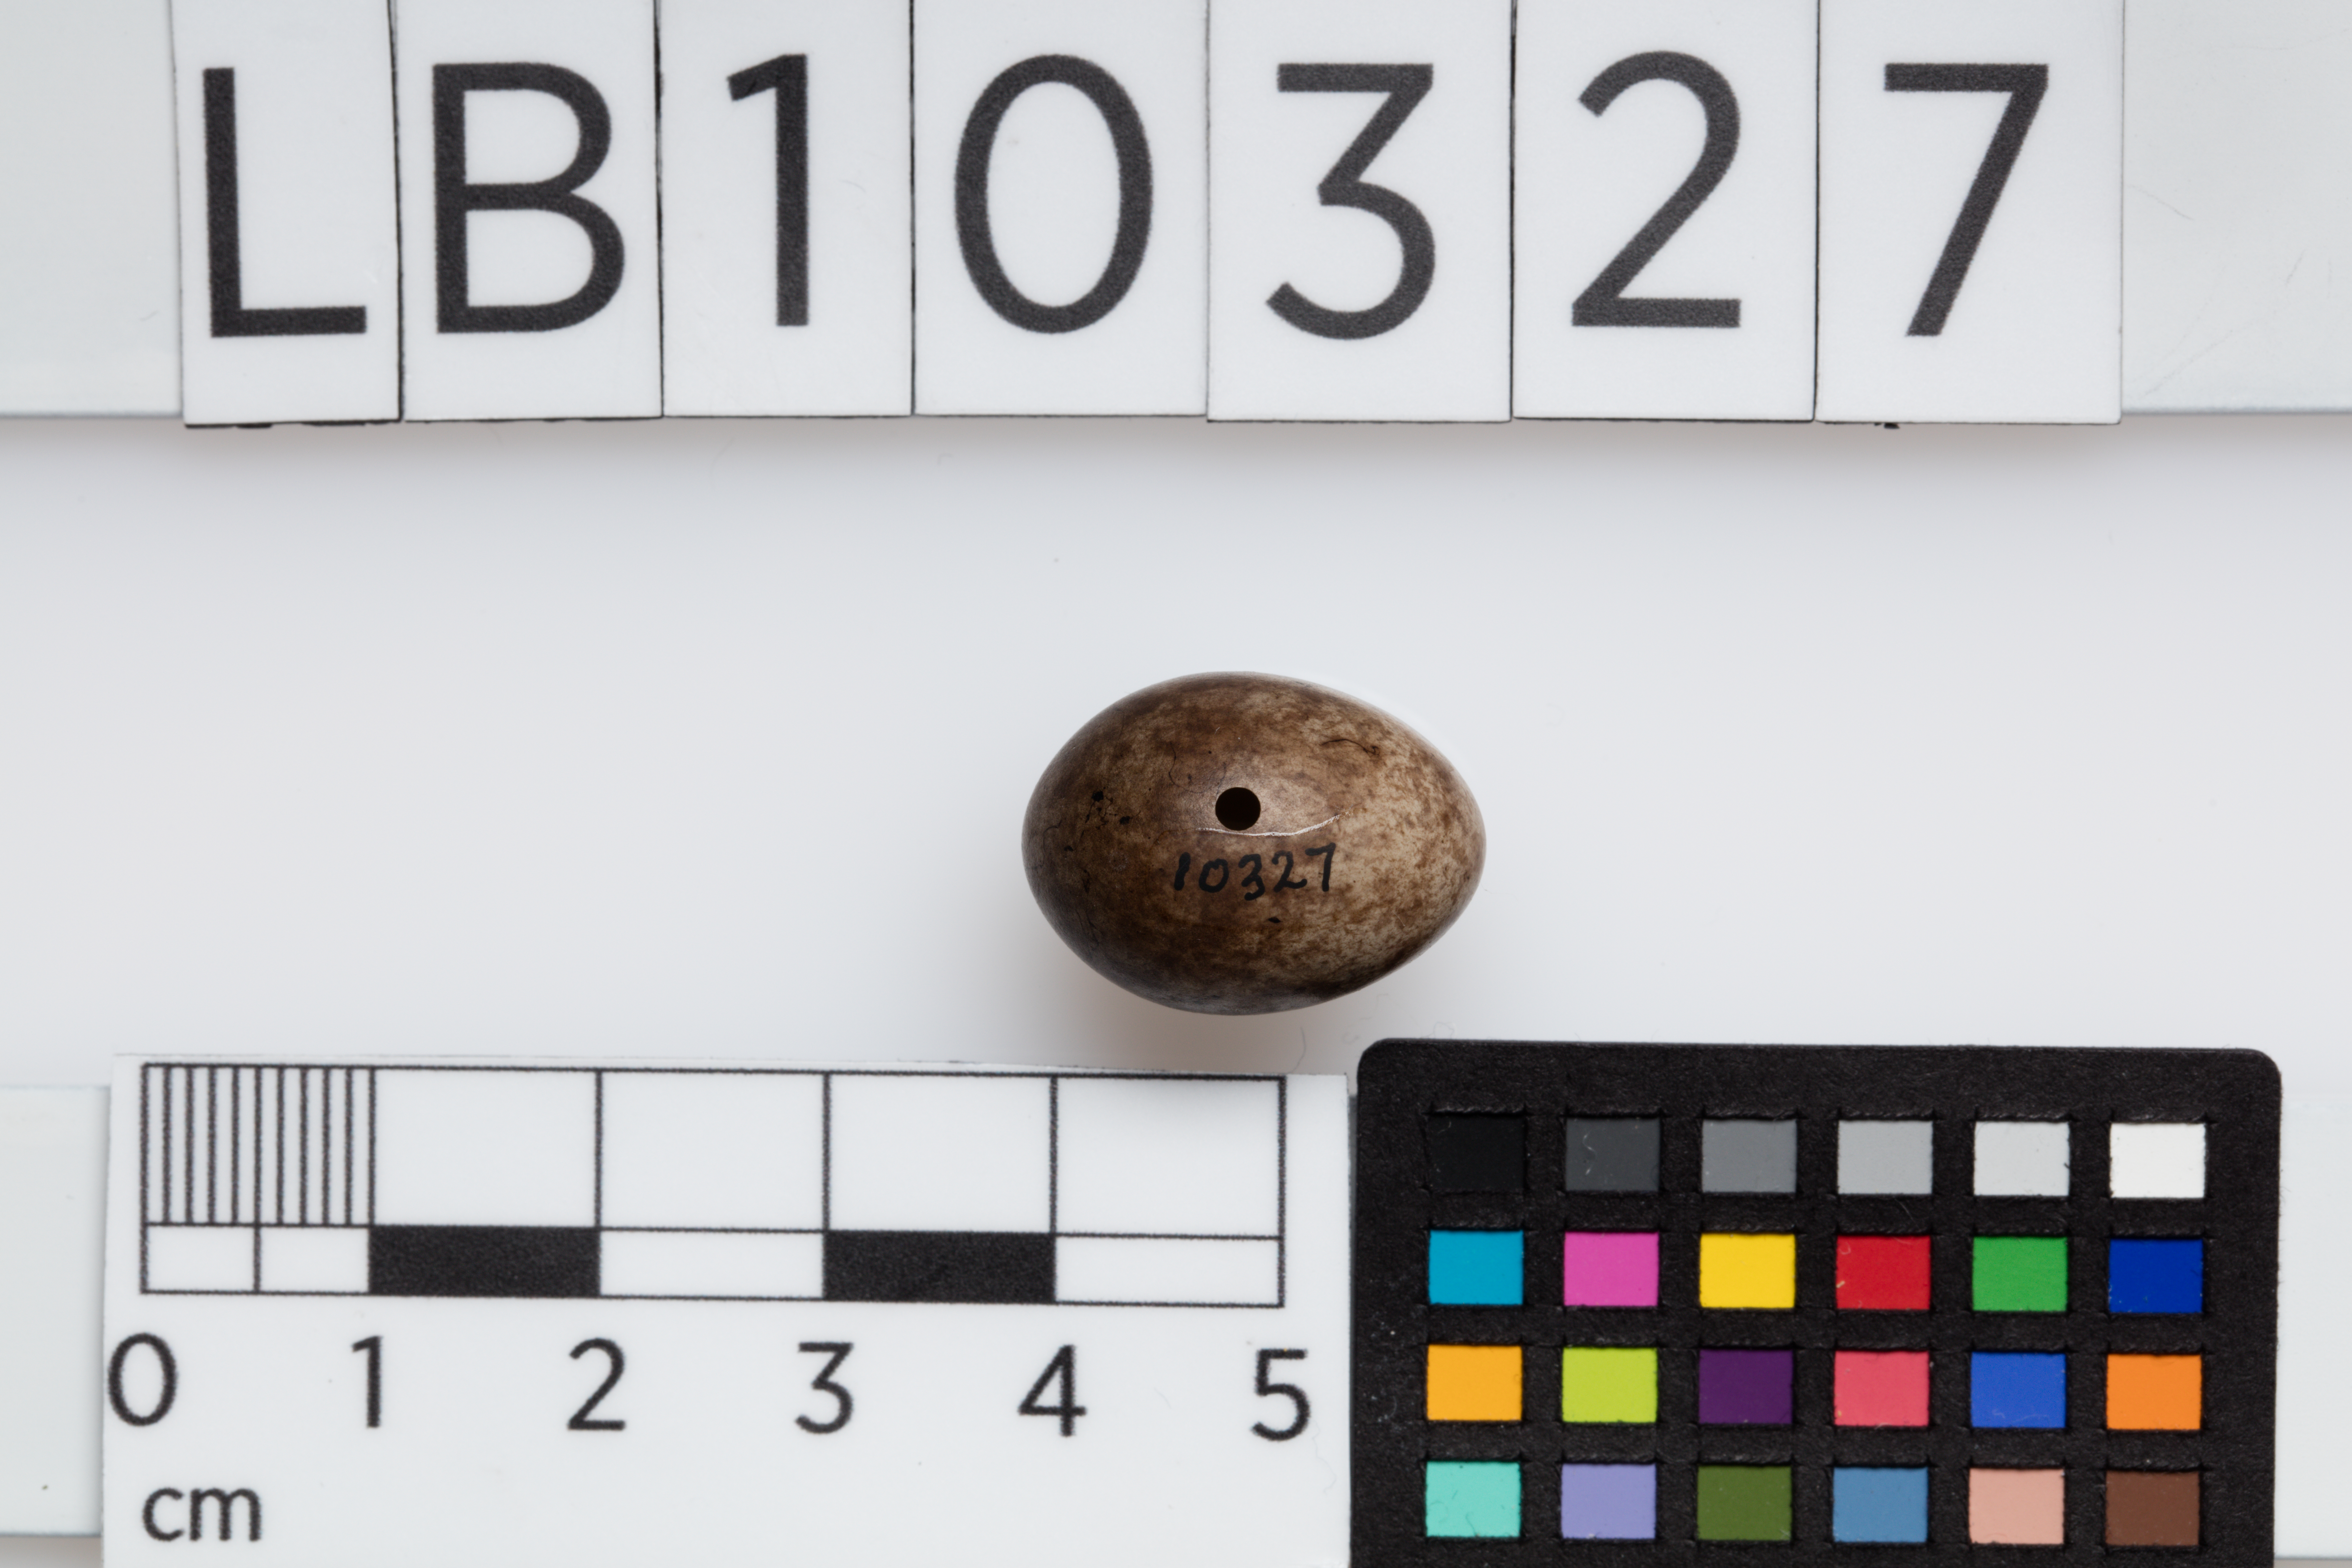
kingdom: Animalia
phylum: Chordata
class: Aves
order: Passeriformes
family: Motacillidae
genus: Anthus
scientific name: Anthus trivialis
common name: Tree pipit
